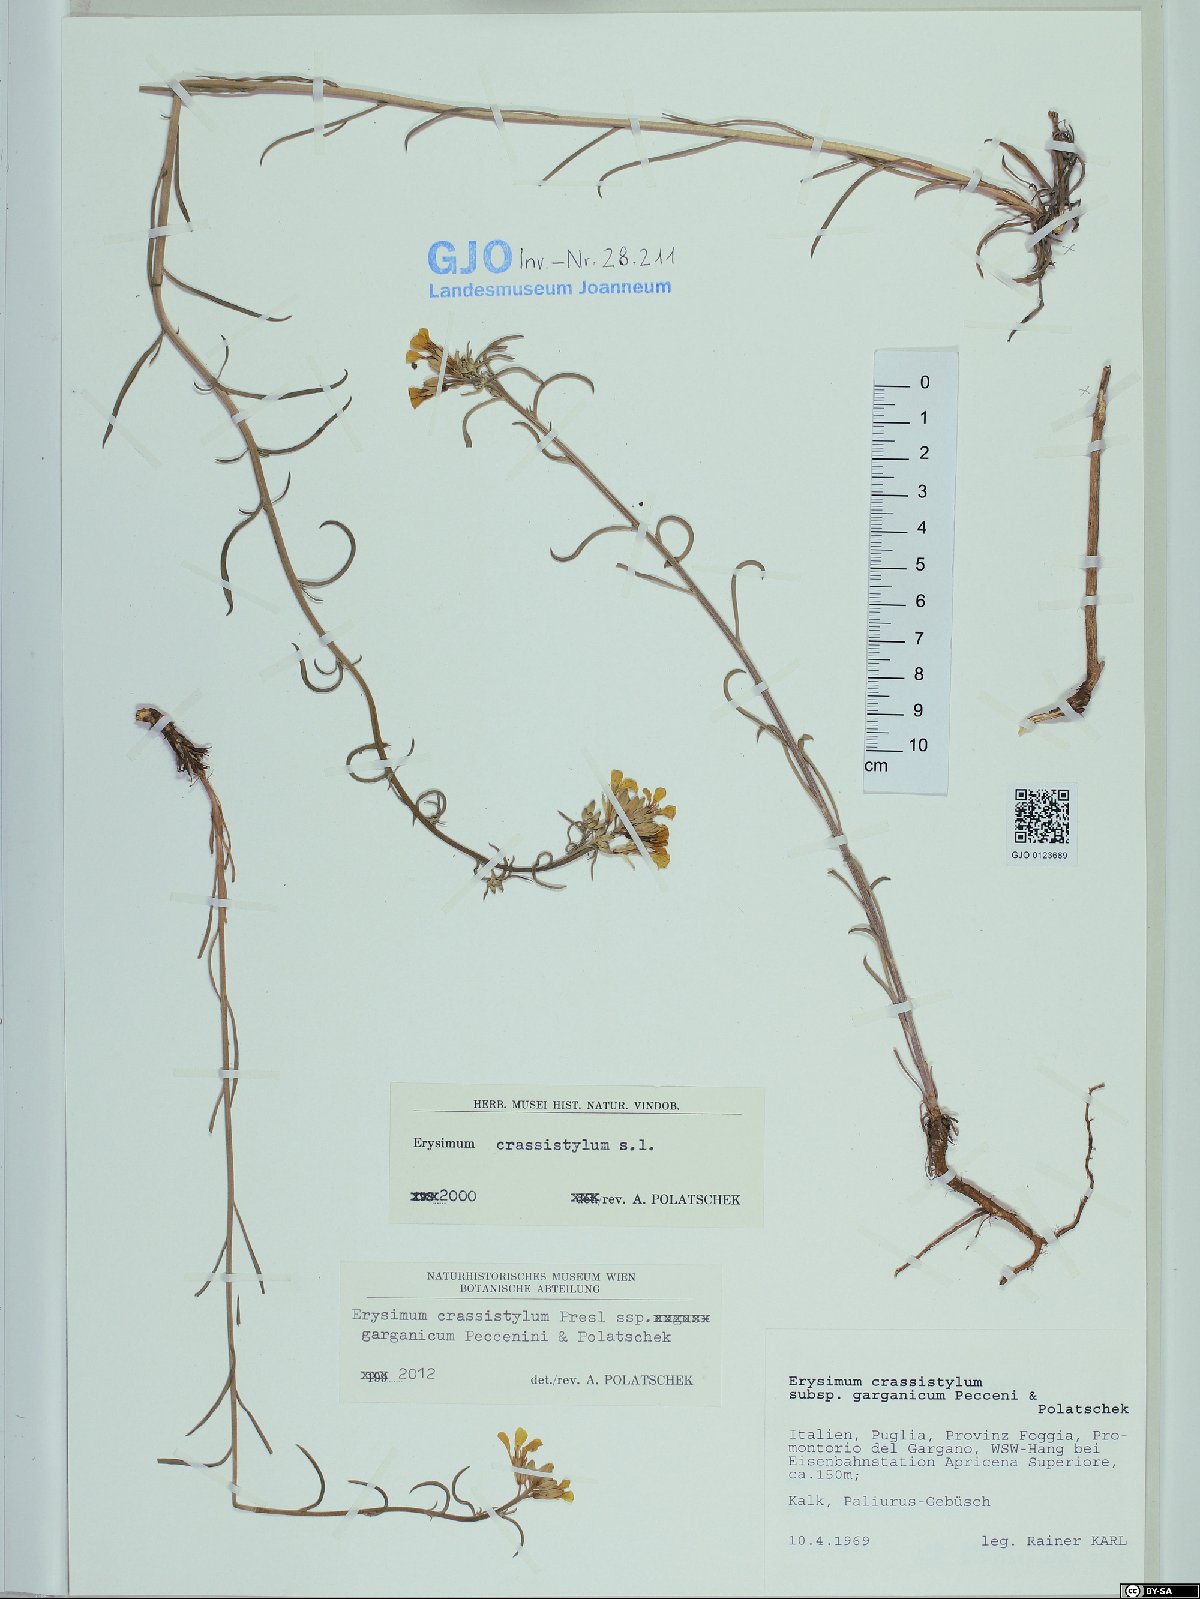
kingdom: Plantae
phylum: Tracheophyta
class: Magnoliopsida
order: Brassicales
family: Brassicaceae
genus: Erysimum
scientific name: Erysimum crassistylum
